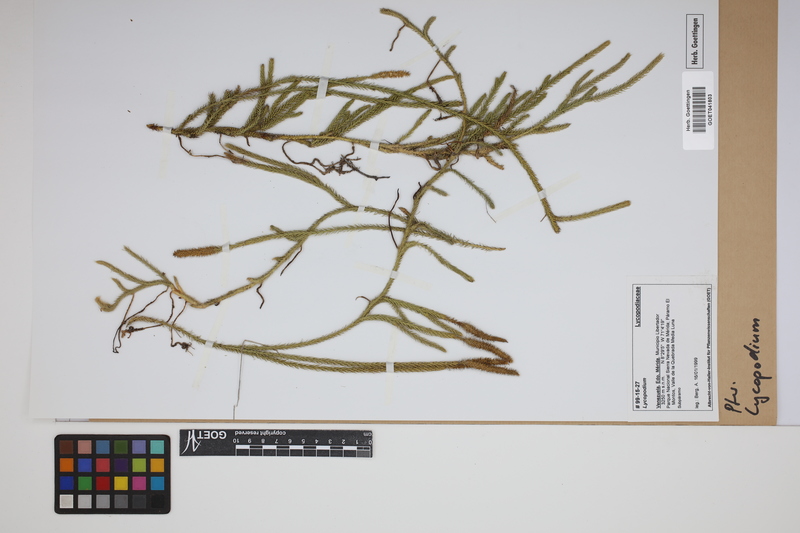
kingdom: Plantae
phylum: Tracheophyta
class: Lycopodiopsida
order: Lycopodiales
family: Lycopodiaceae
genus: Lycopodium
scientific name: Lycopodium
